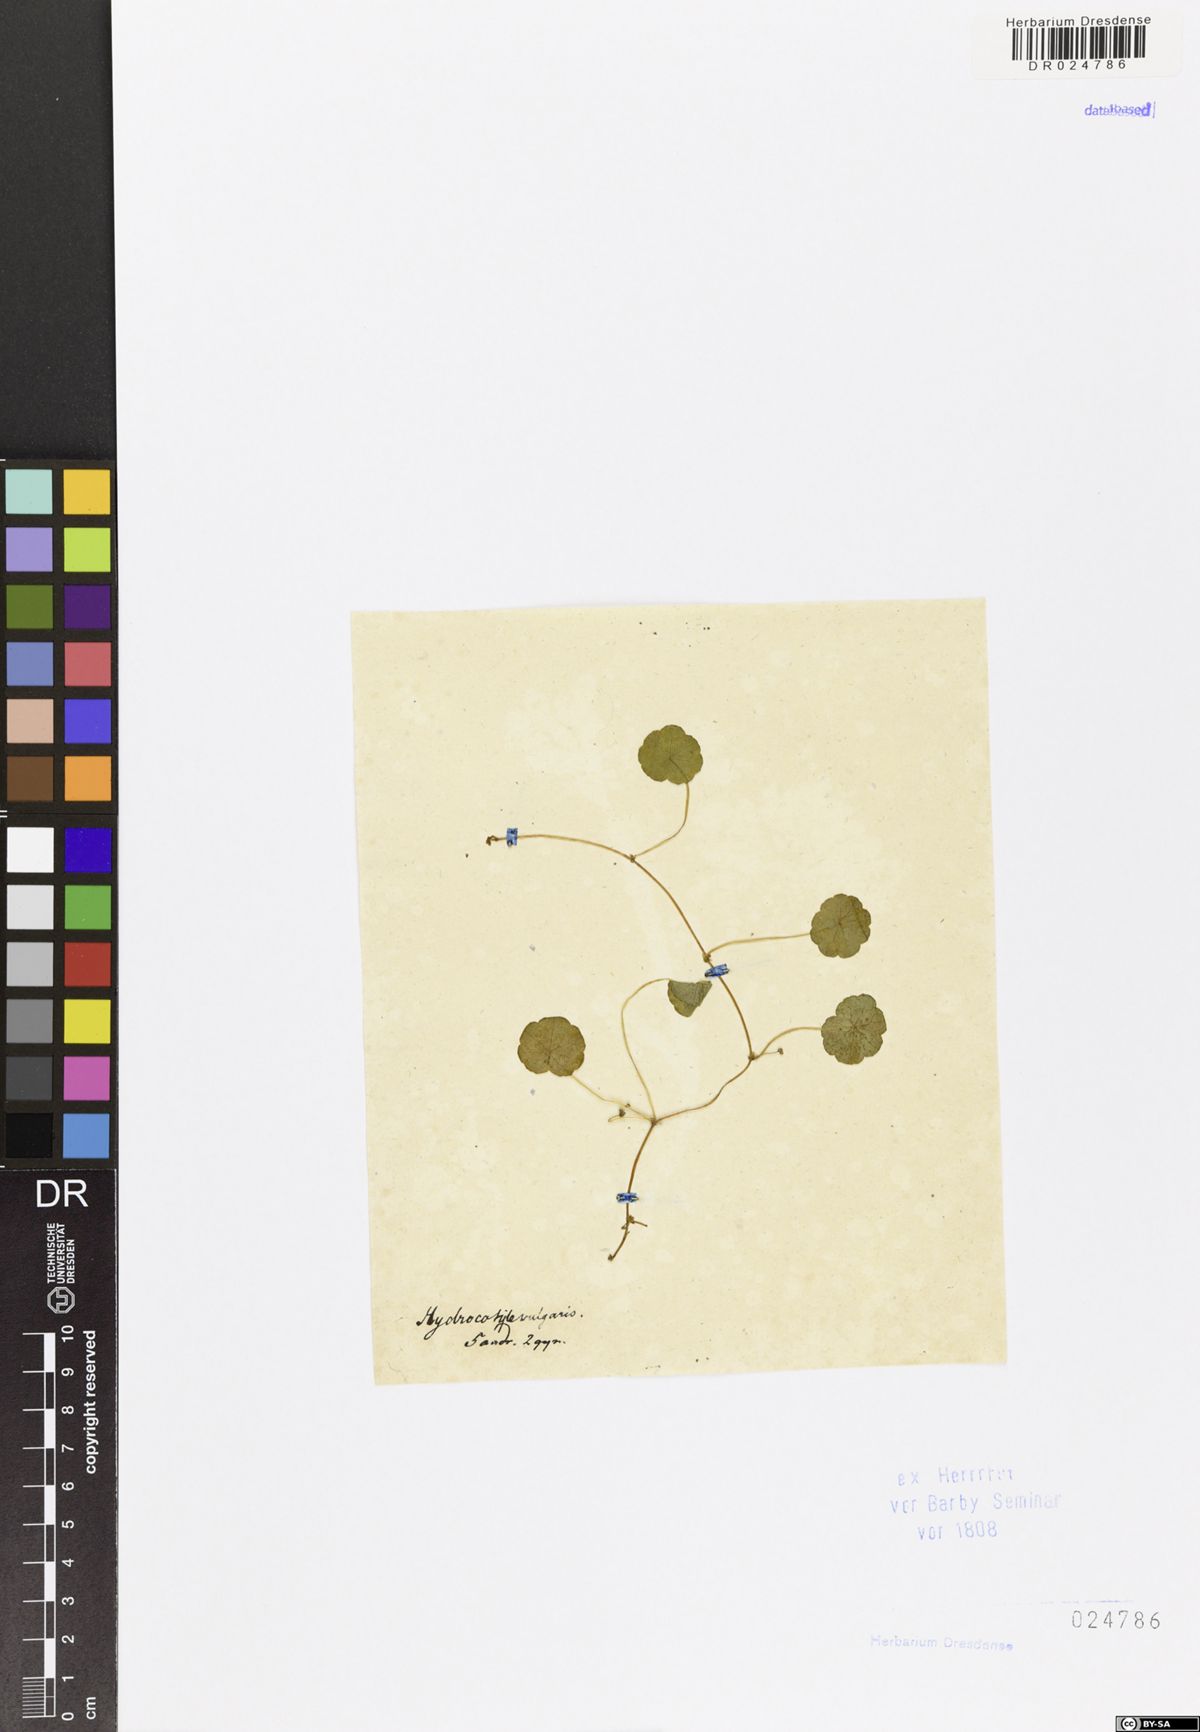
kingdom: Plantae
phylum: Tracheophyta
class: Magnoliopsida
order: Apiales
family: Araliaceae
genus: Hydrocotyle
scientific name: Hydrocotyle vulgaris
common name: Marsh pennywort
